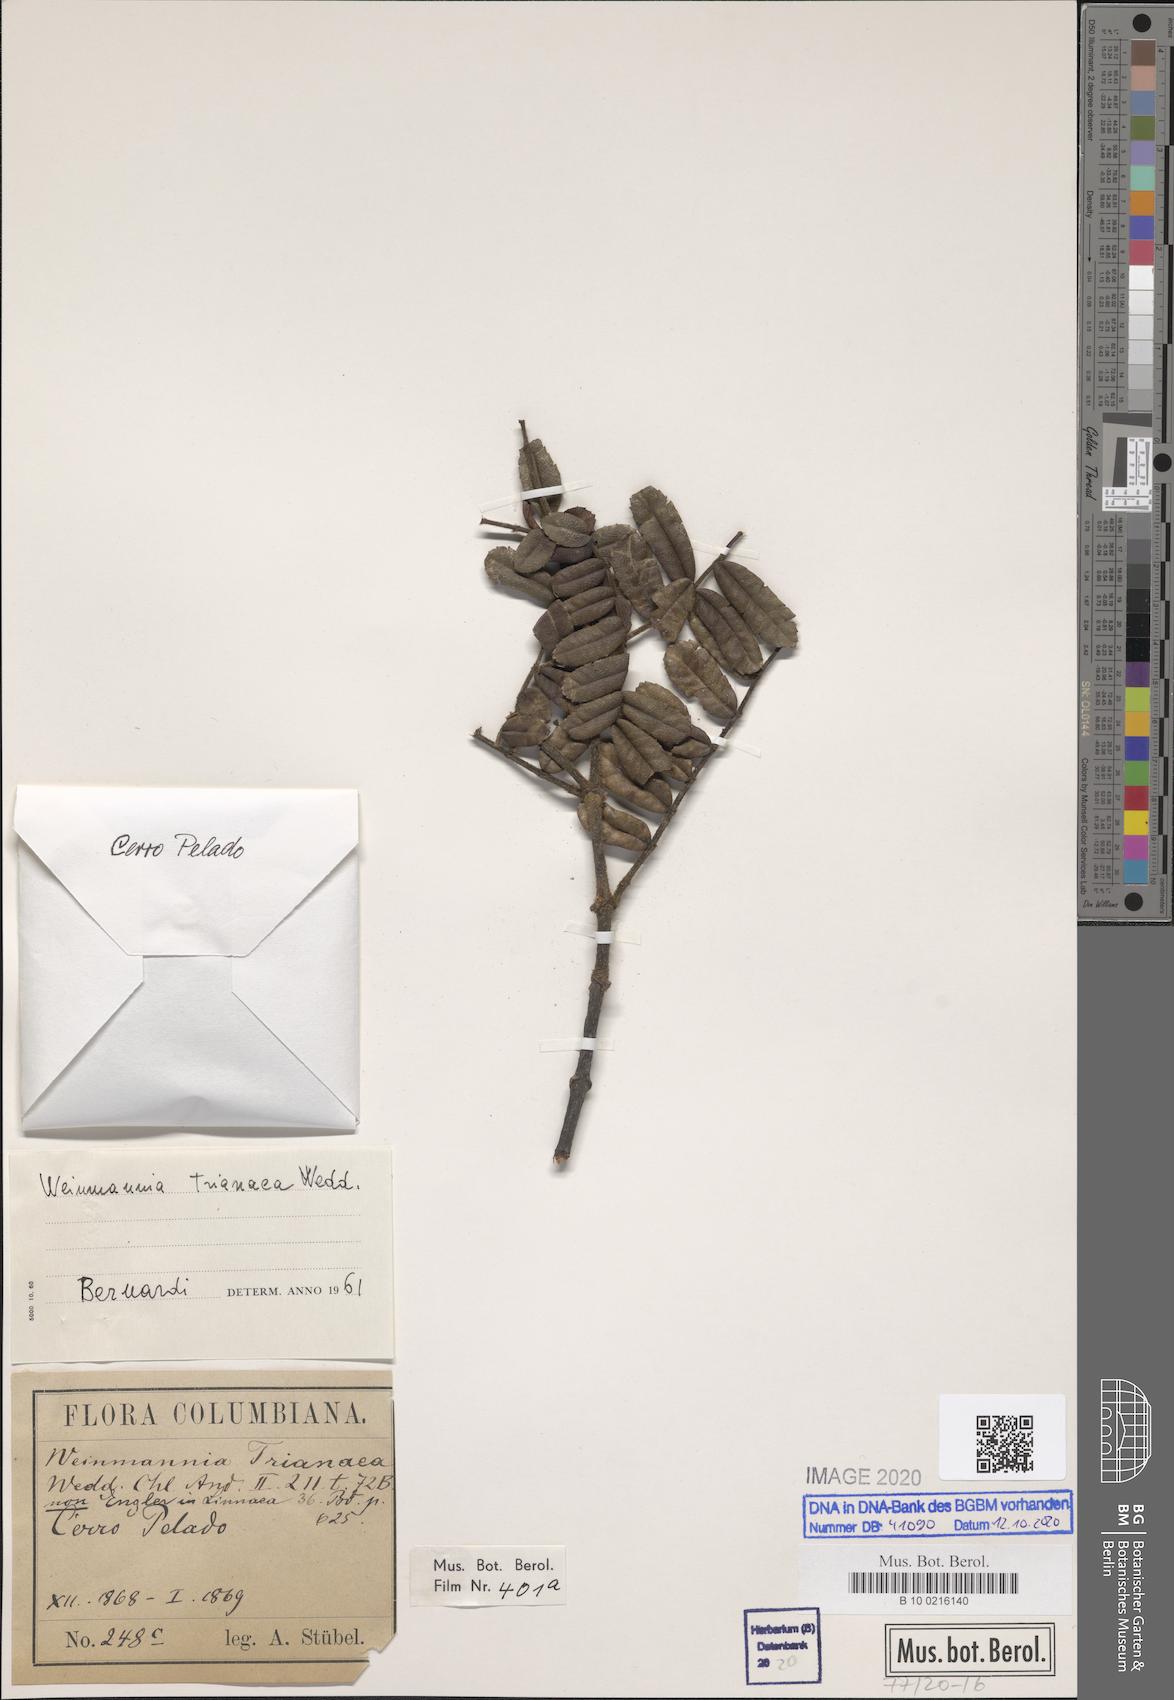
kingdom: Plantae
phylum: Tracheophyta
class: Magnoliopsida
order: Oxalidales
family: Cunoniaceae
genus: Weinmannia
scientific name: Weinmannia trianaea
